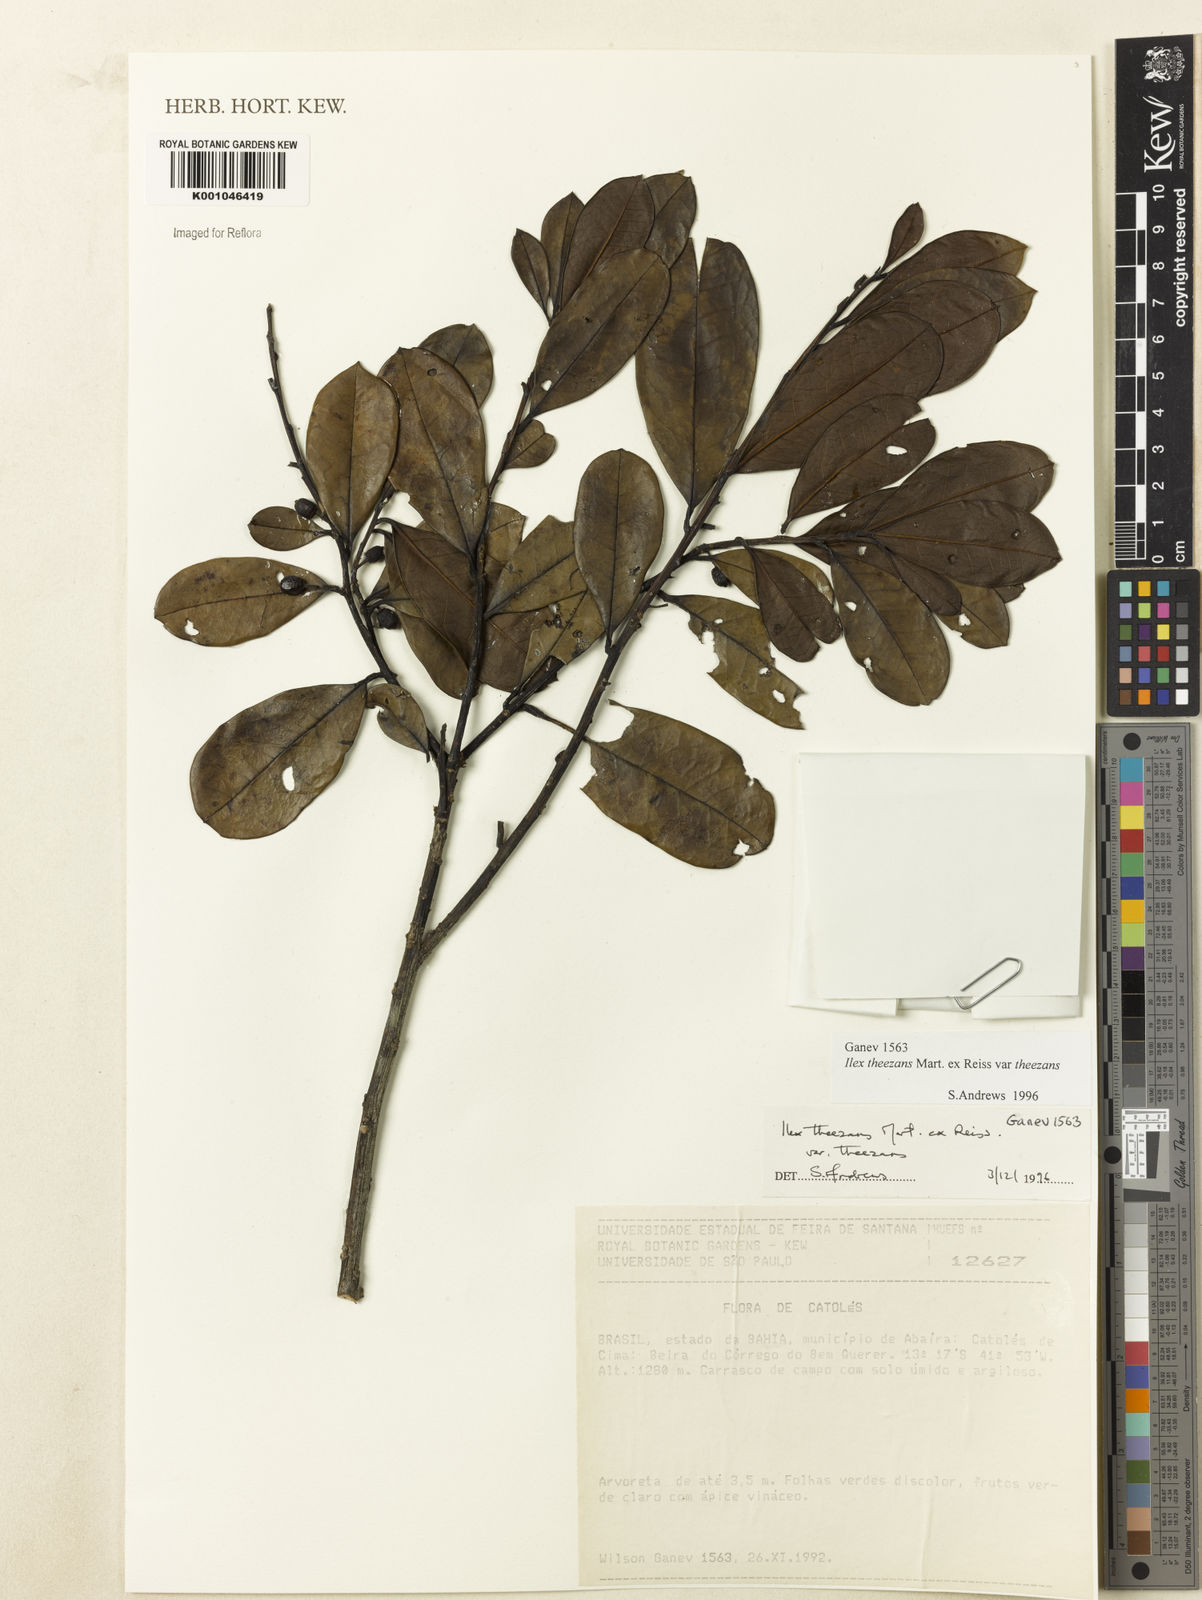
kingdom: Plantae
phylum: Tracheophyta
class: Magnoliopsida
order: Aquifoliales
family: Aquifoliaceae
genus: Ilex
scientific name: Ilex paraguariensis
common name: Paraguay tea
